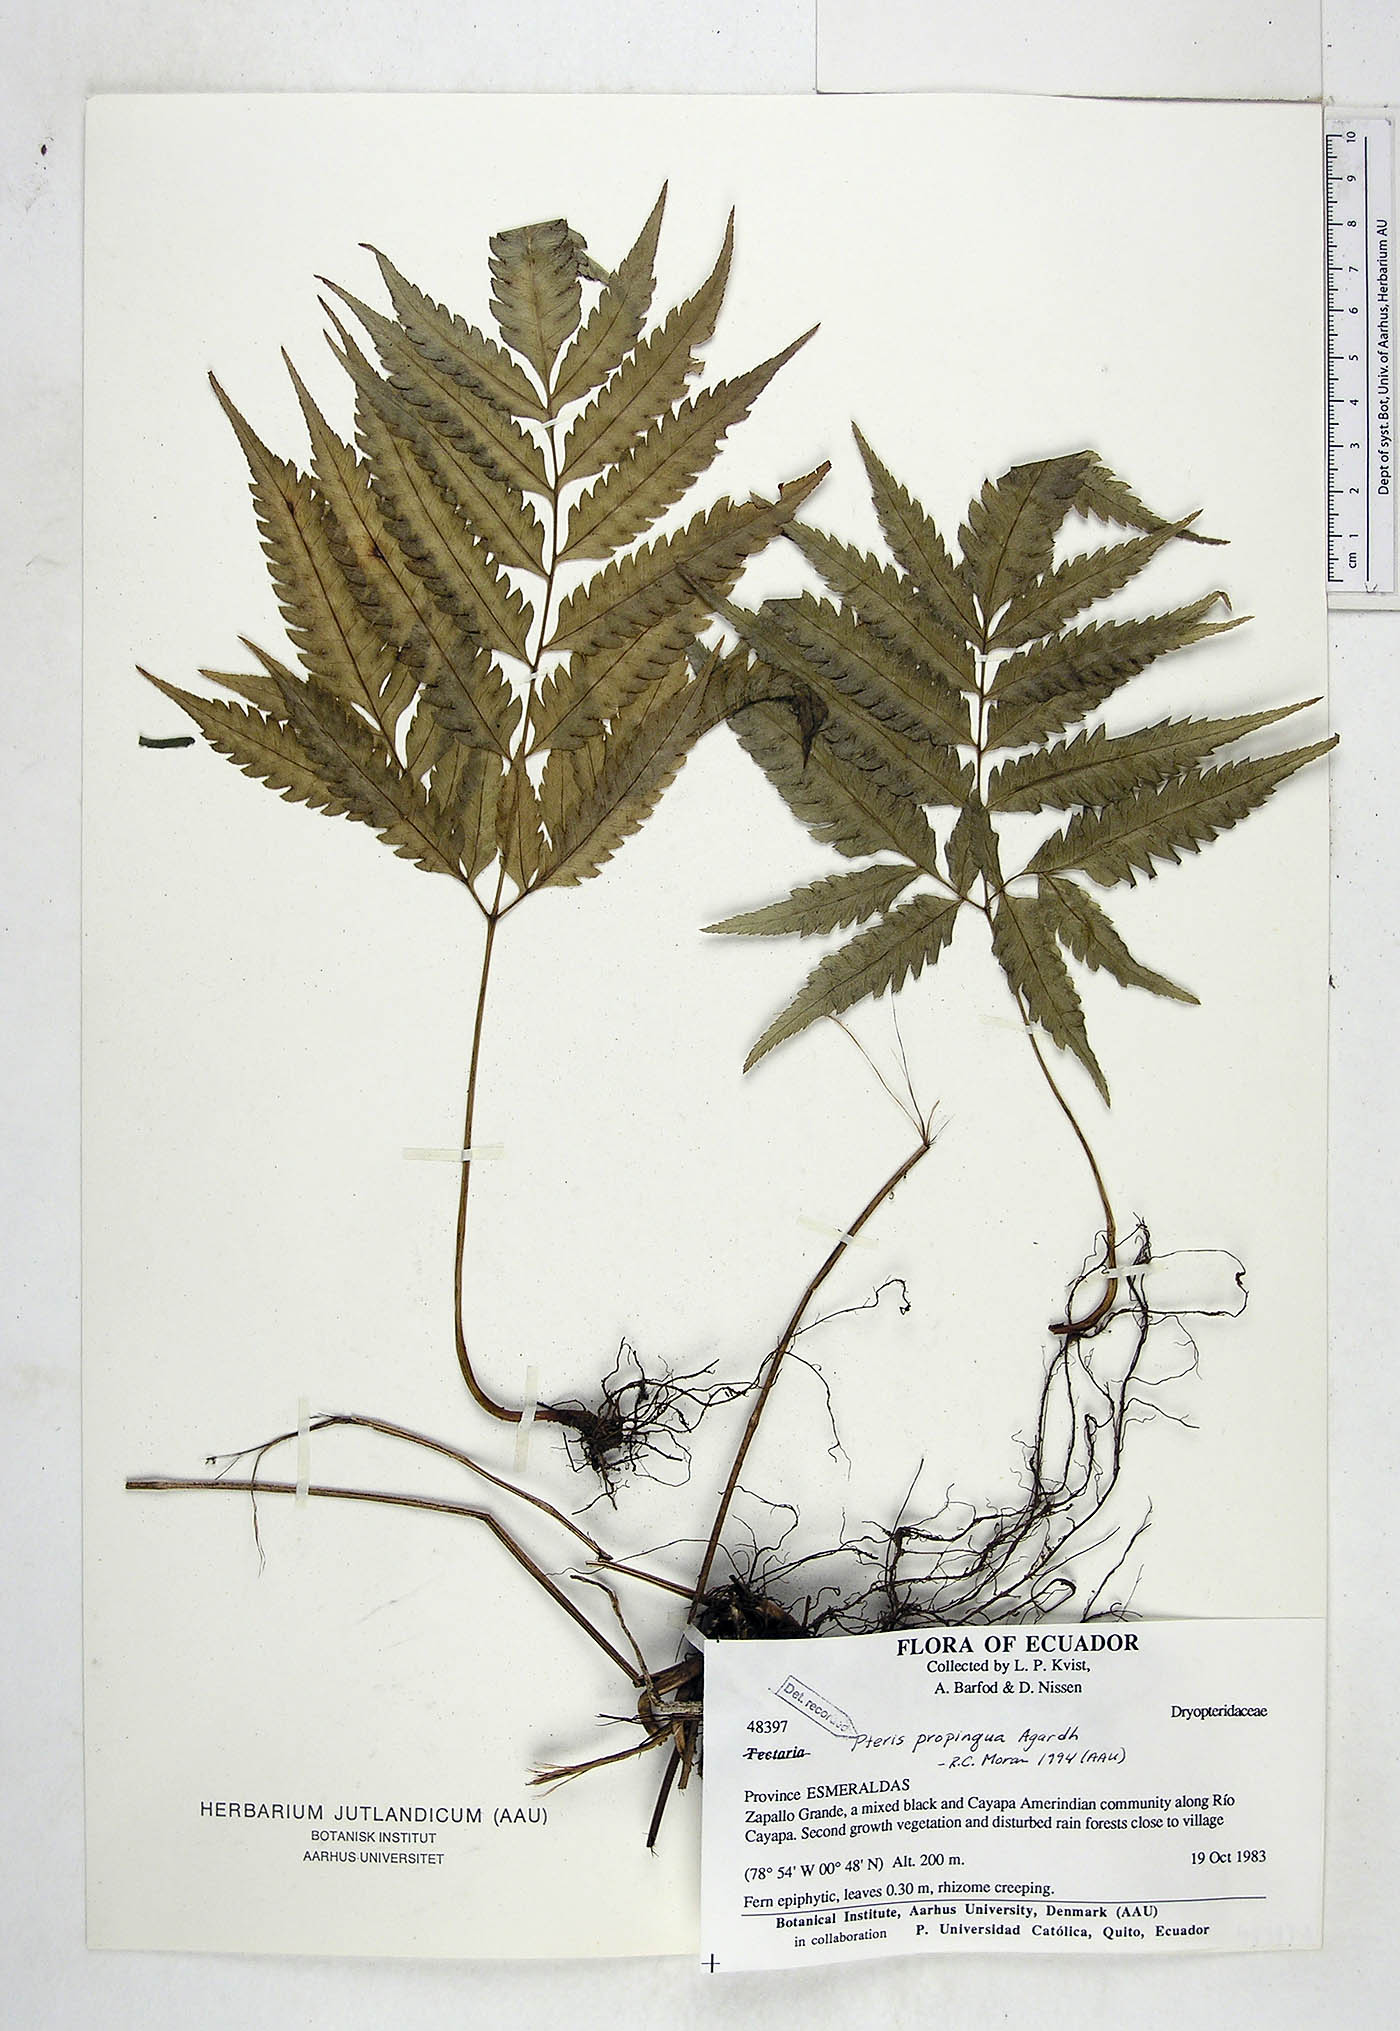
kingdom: Plantae
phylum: Tracheophyta
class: Polypodiopsida
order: Polypodiales
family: Pteridaceae
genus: Pteris
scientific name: Pteris propinqua
